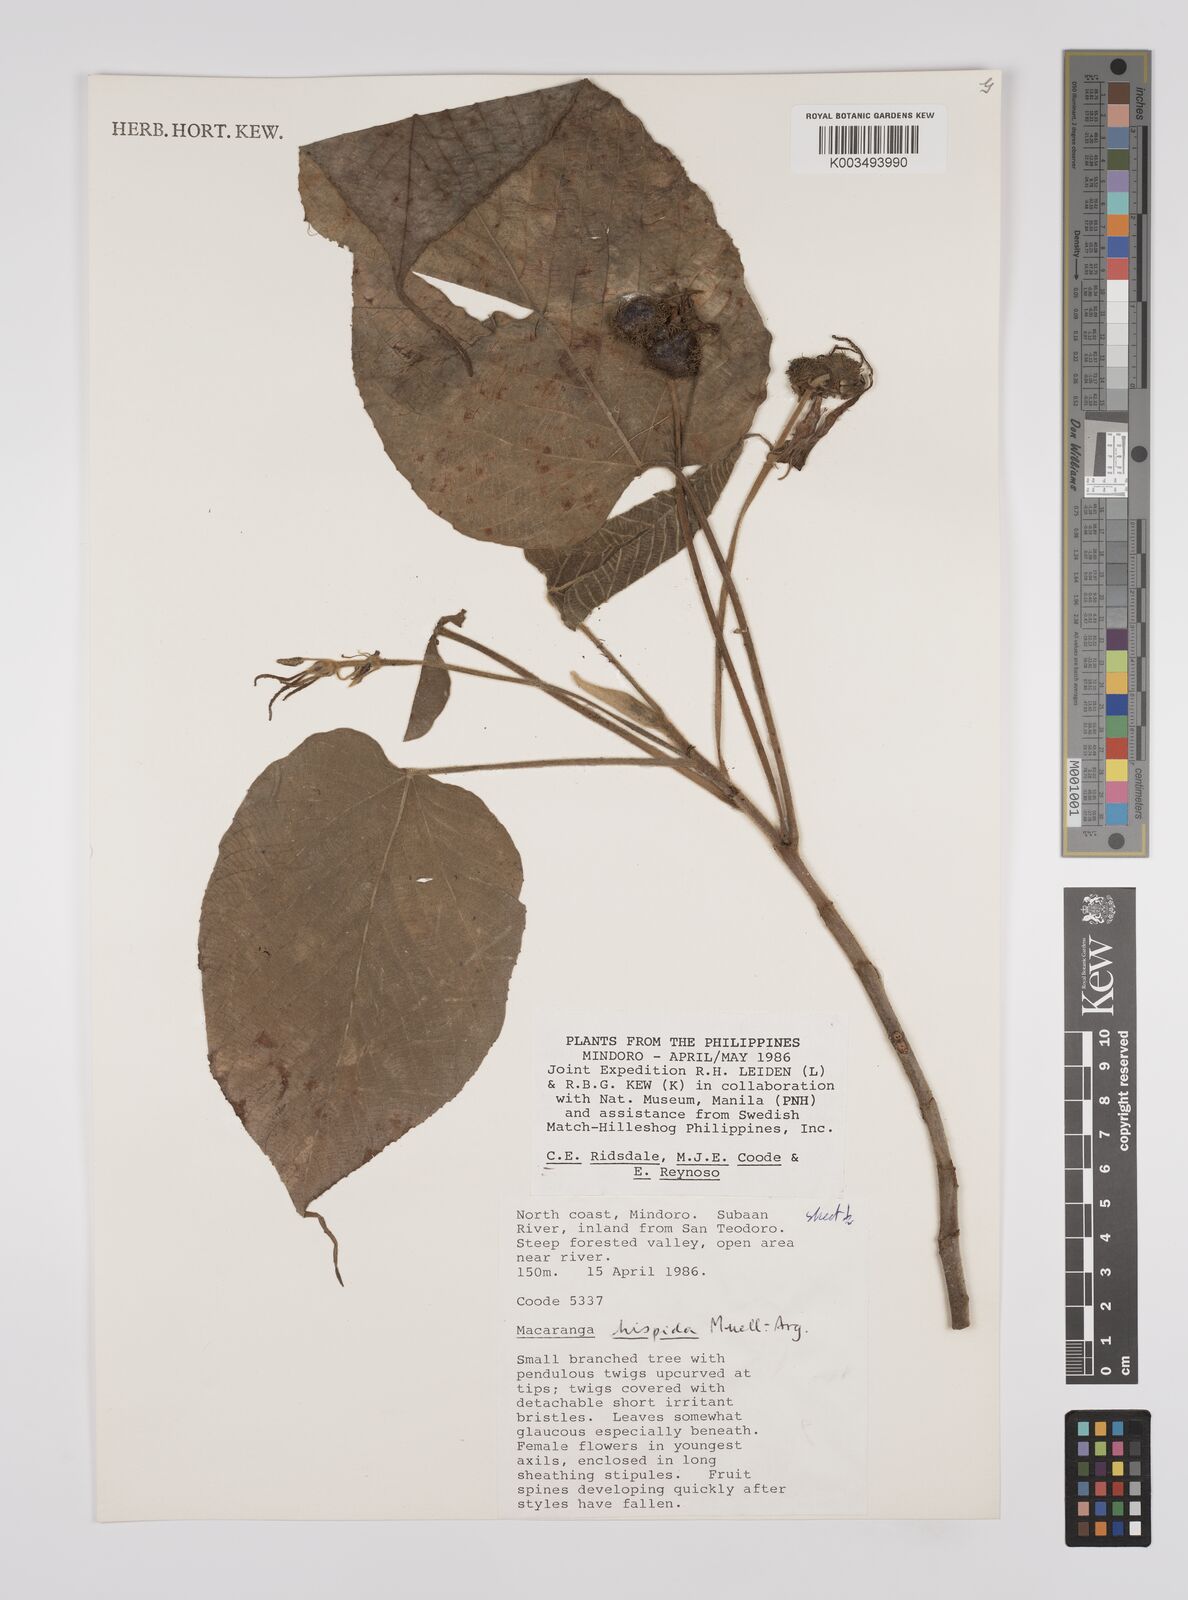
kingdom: Plantae
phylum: Tracheophyta
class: Magnoliopsida
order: Malpighiales
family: Euphorbiaceae
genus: Macaranga
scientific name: Macaranga hispida
